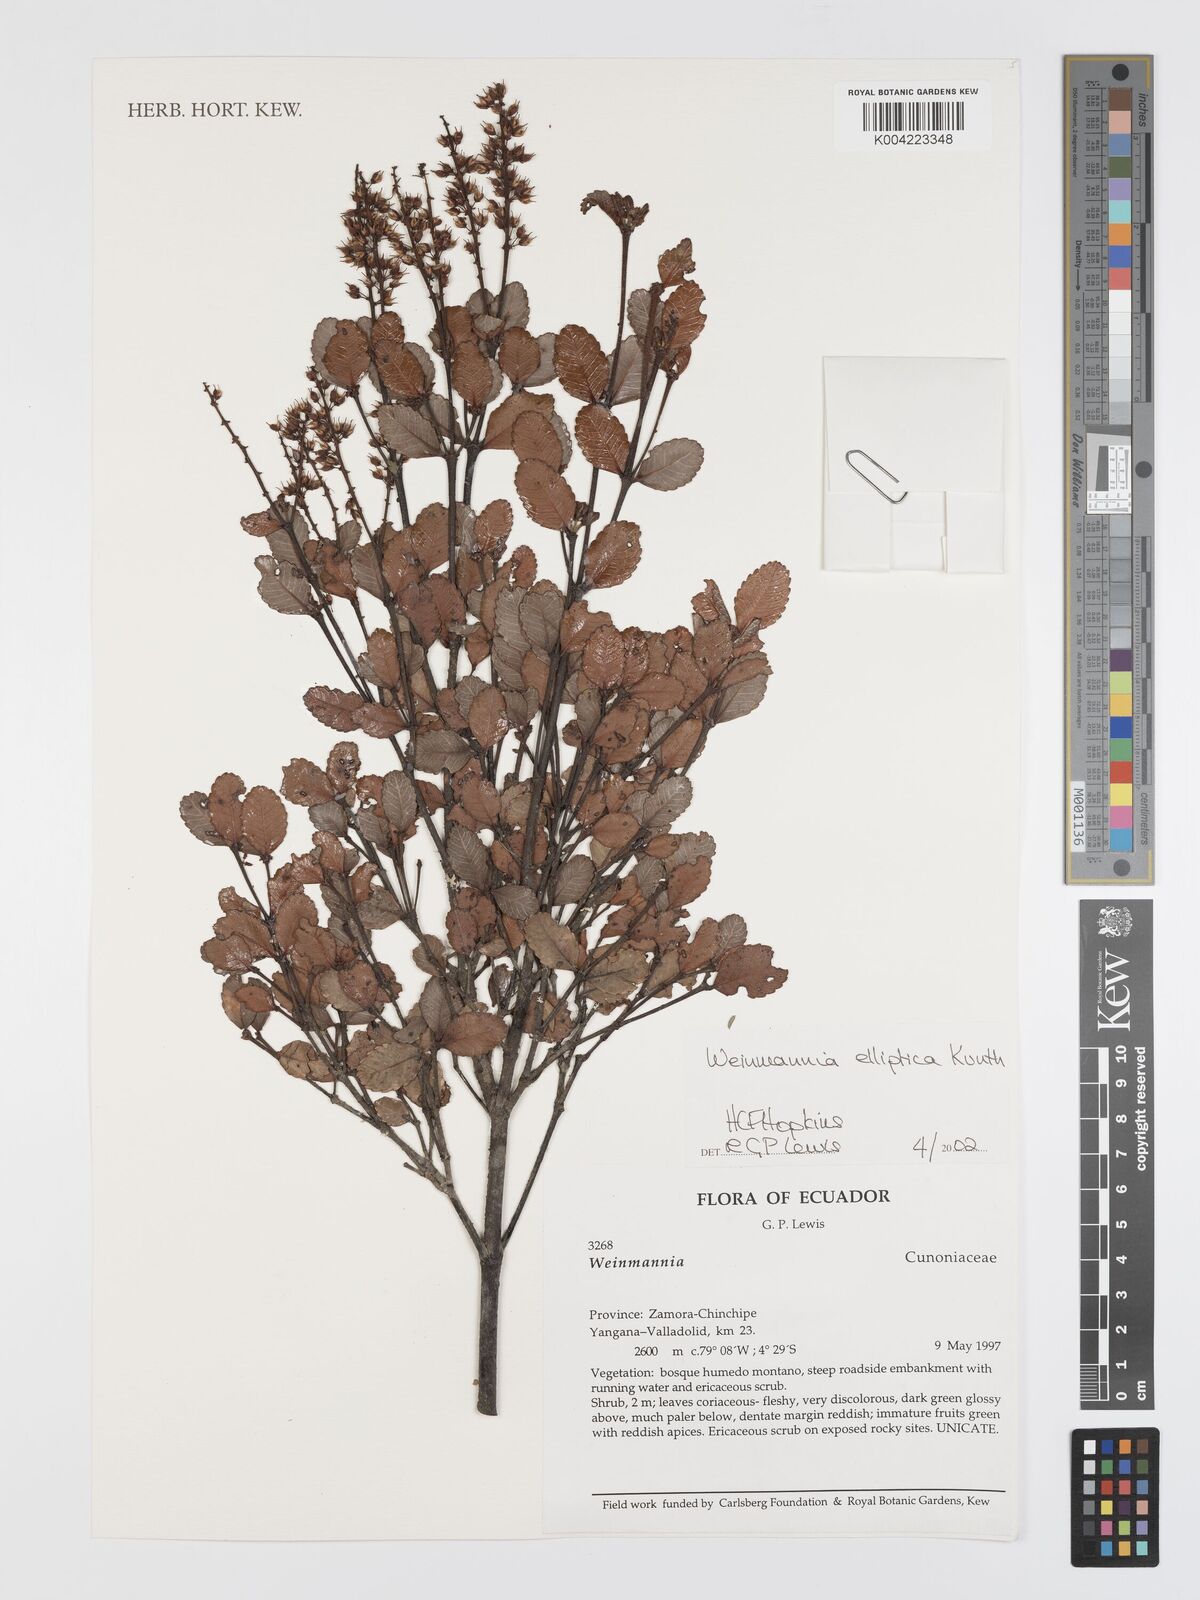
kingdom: Plantae
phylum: Tracheophyta
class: Magnoliopsida
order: Oxalidales
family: Cunoniaceae
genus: Weinmannia
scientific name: Weinmannia elliptica
